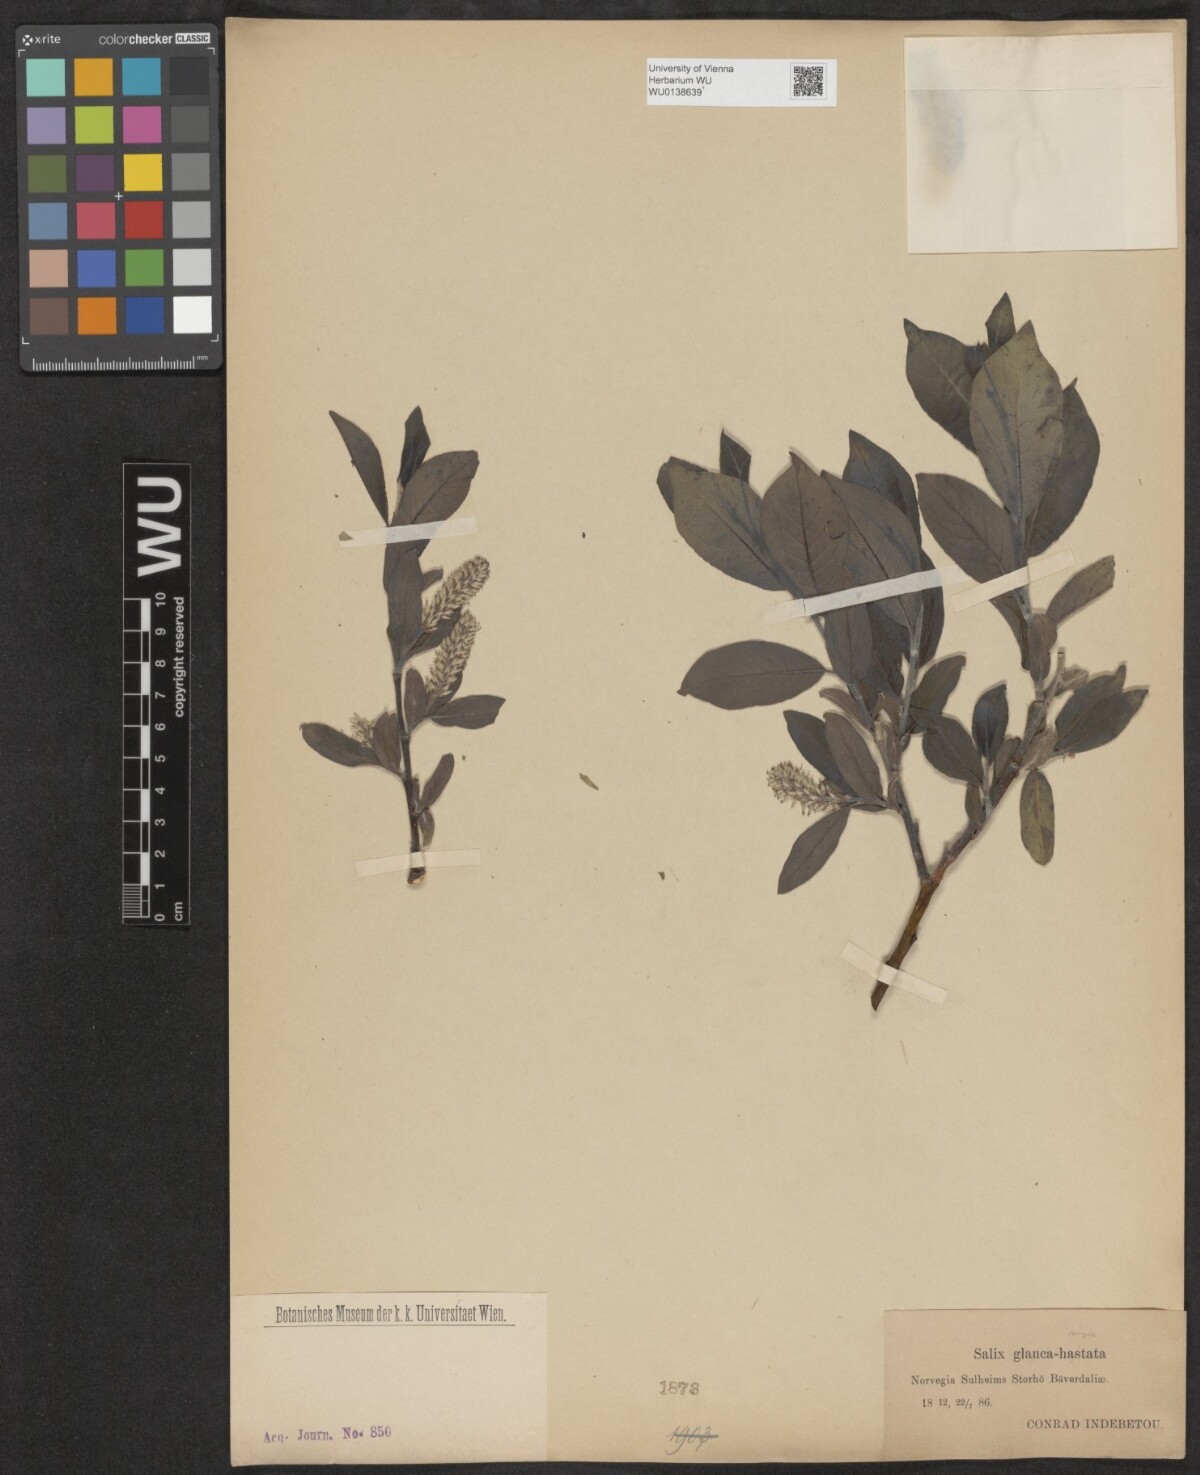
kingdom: Plantae
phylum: Tracheophyta
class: Magnoliopsida
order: Malpighiales
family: Salicaceae
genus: Salix
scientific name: Salix myrsinifolia
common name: Dark-leaved willow
